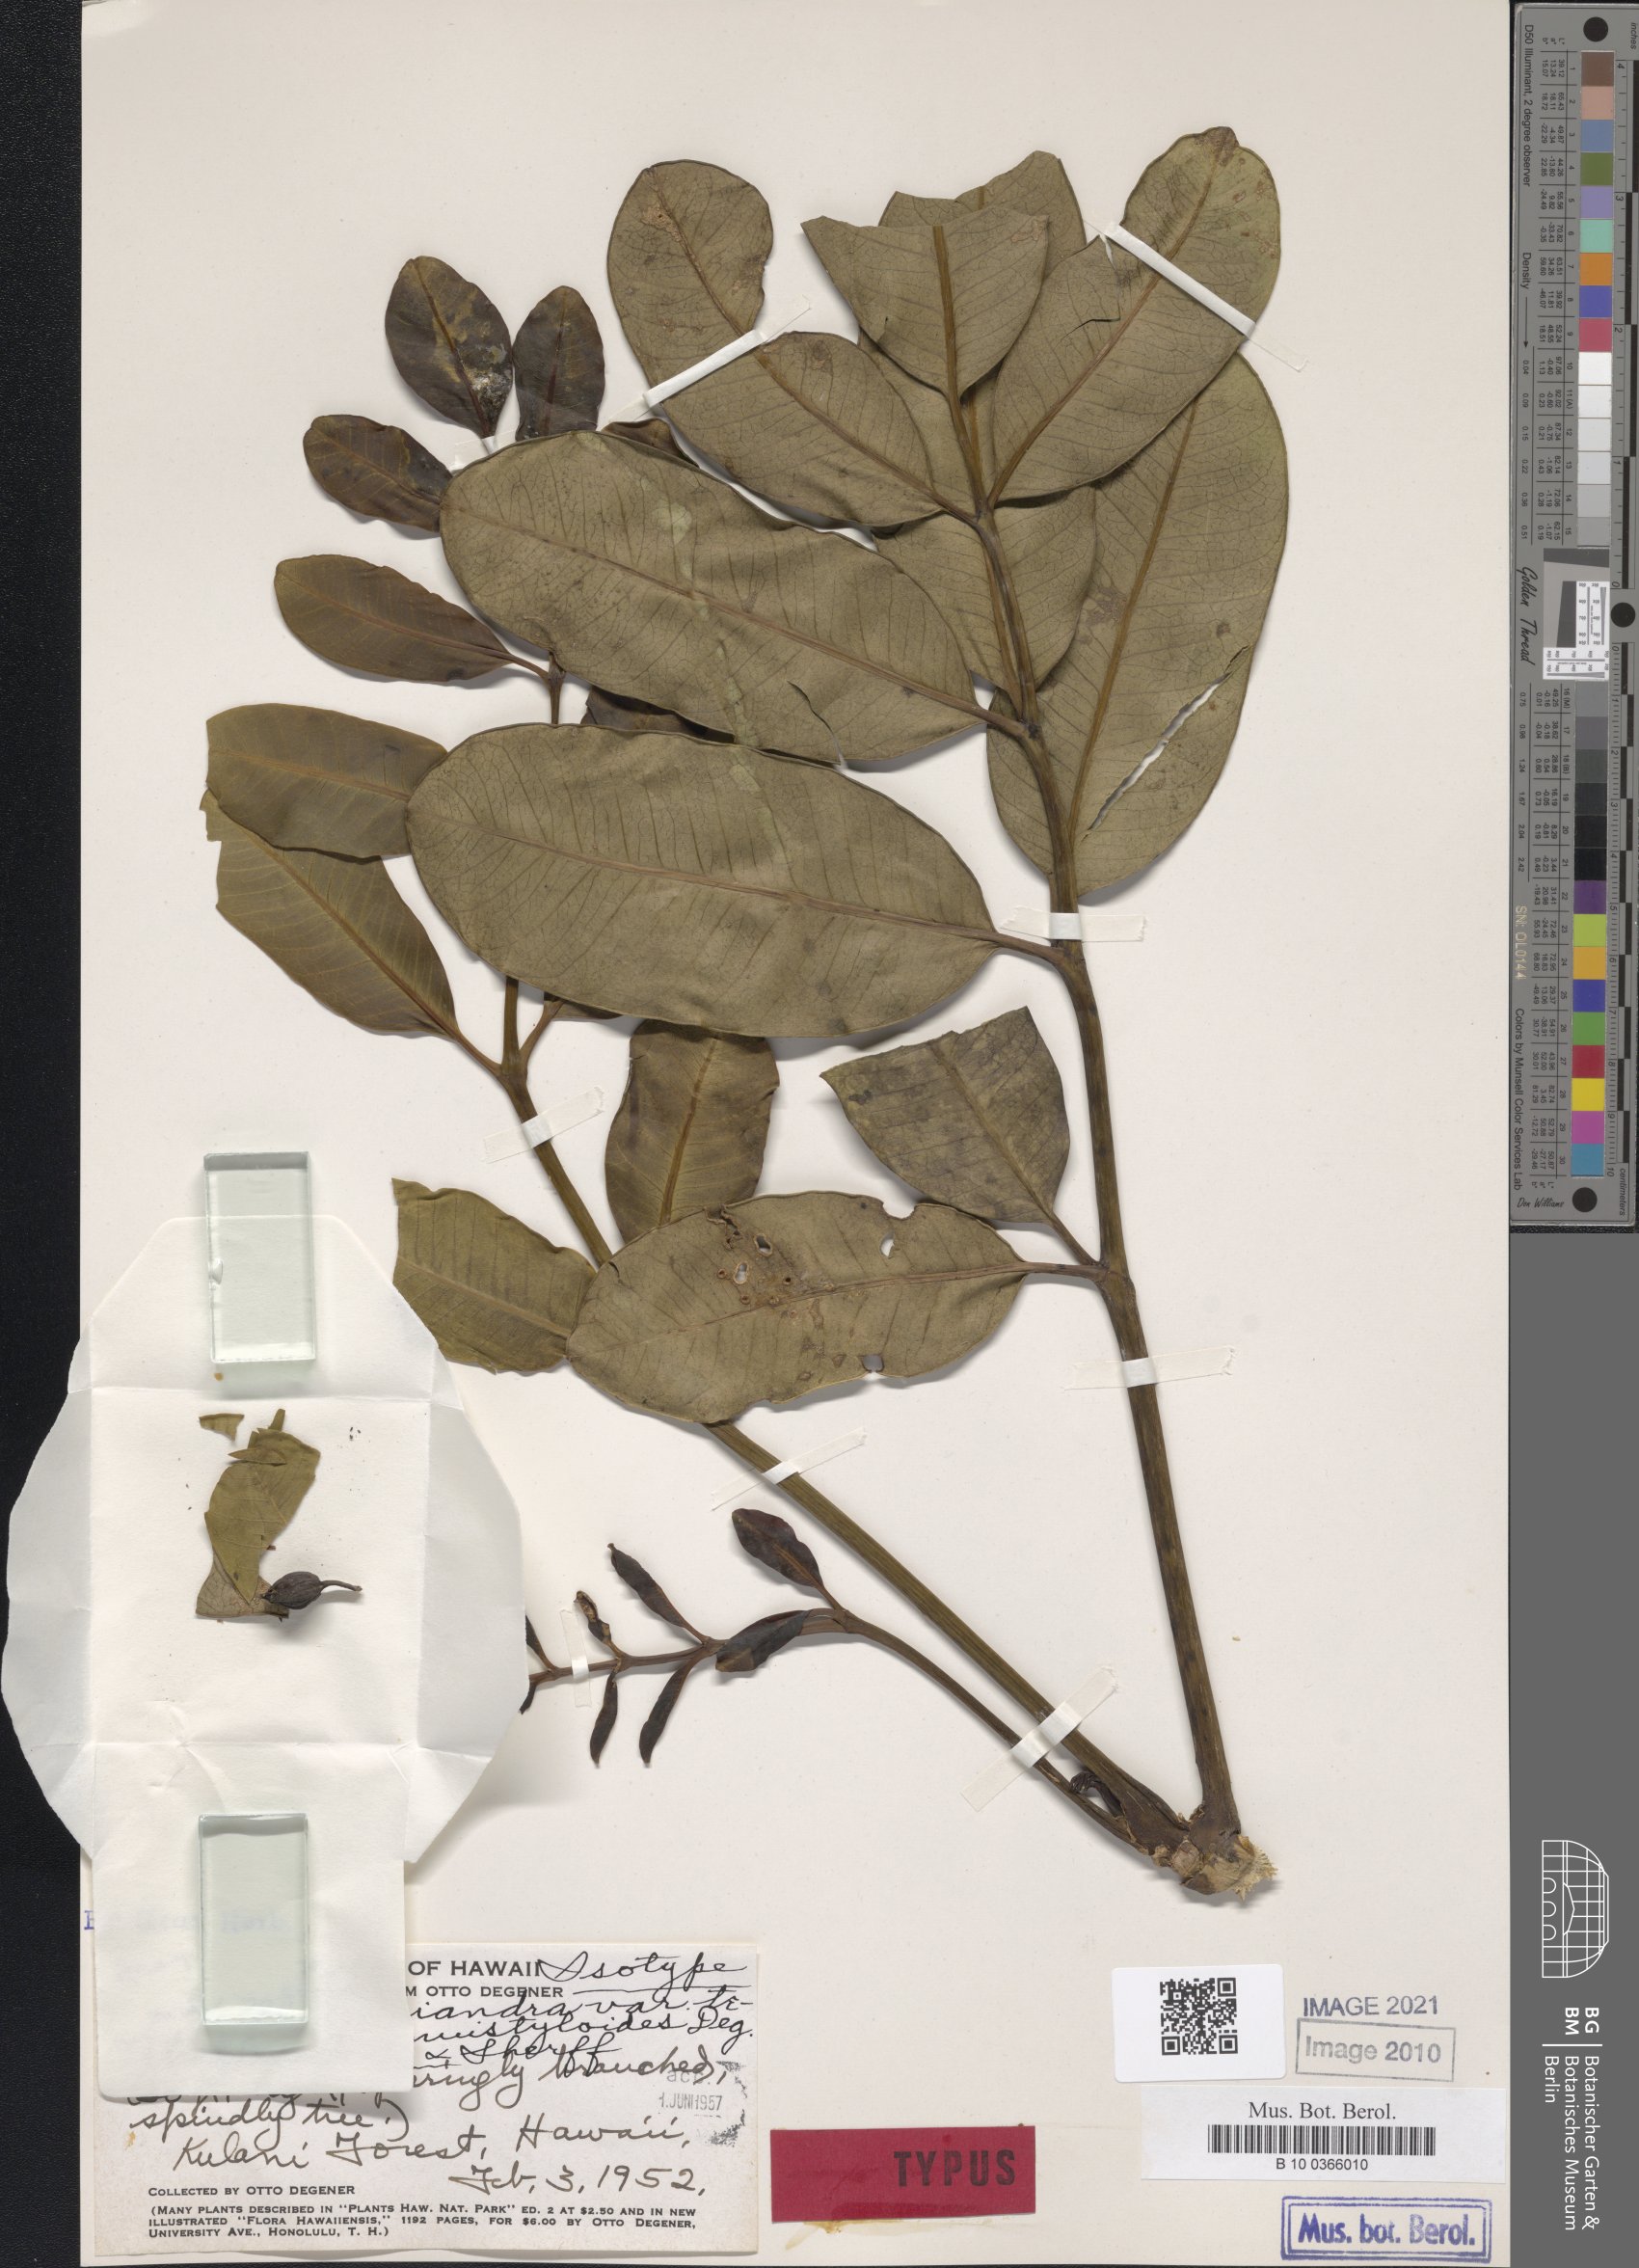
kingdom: Plantae
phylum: Tracheophyta
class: Magnoliopsida
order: Apiales
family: Araliaceae
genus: Polyscias
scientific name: Polyscias oahuensis
